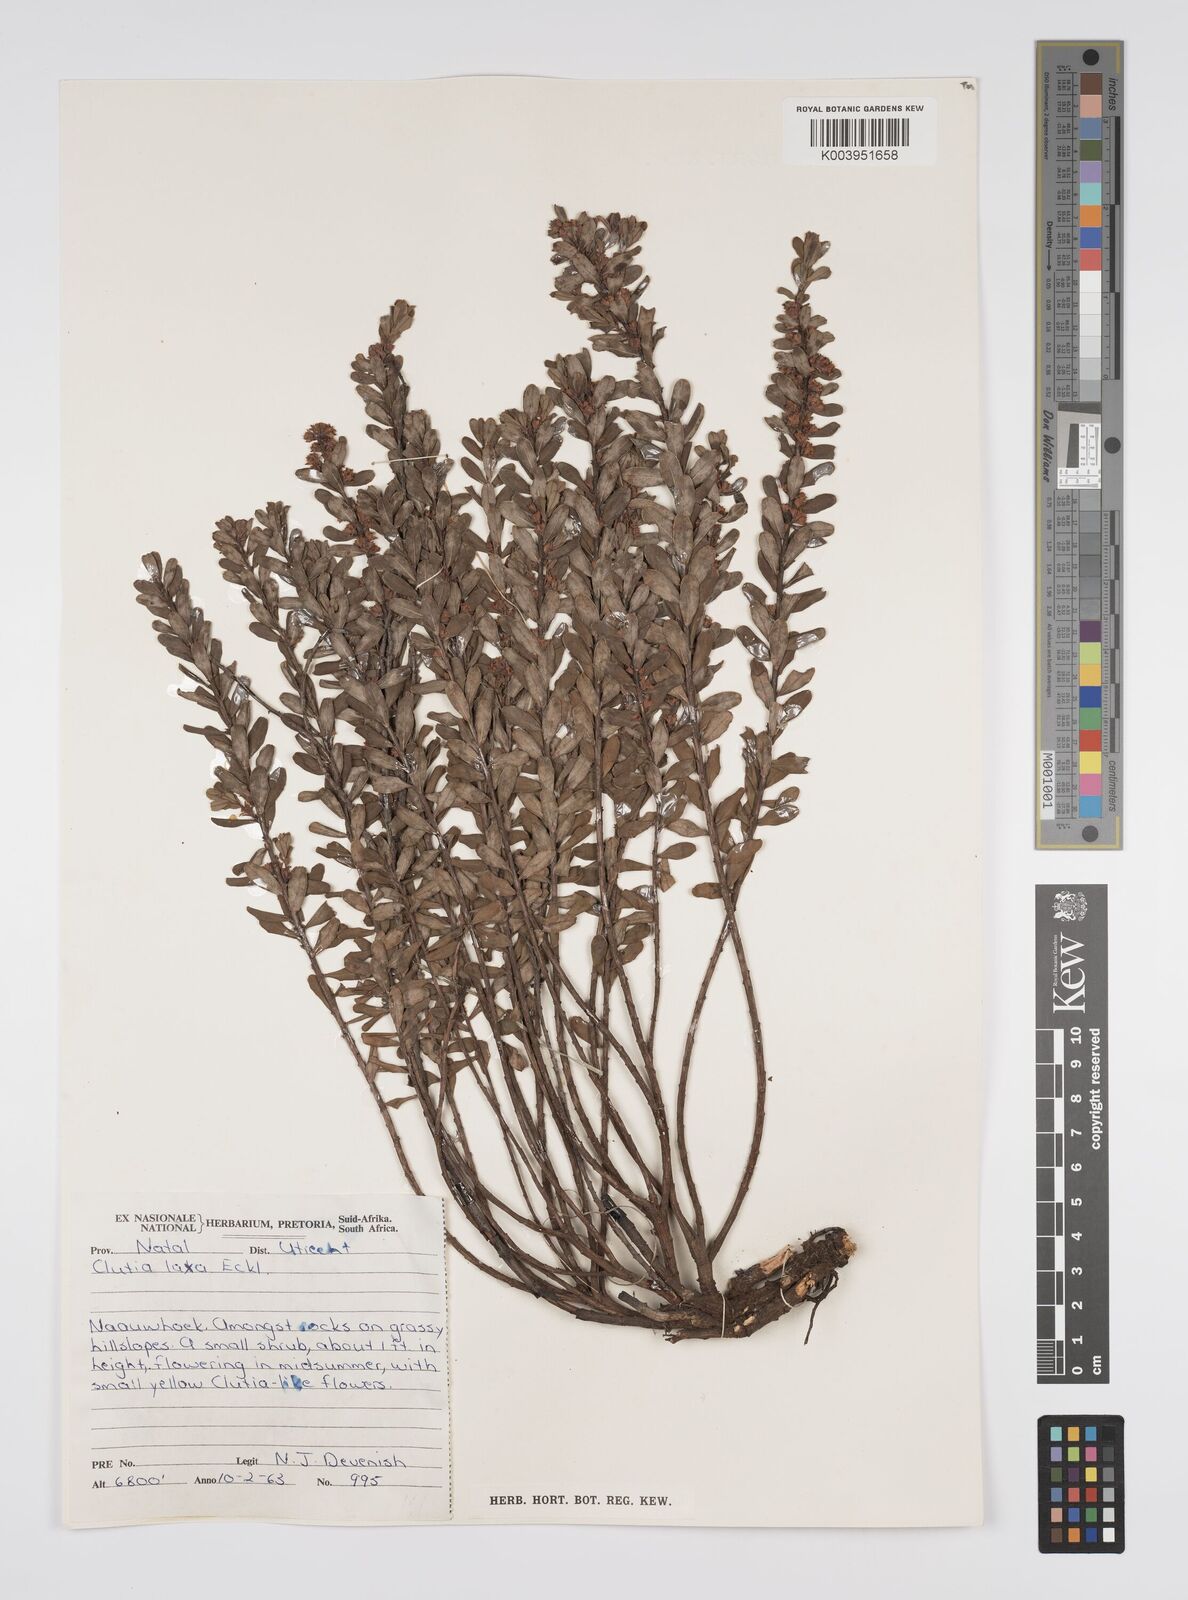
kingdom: Plantae
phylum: Tracheophyta
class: Magnoliopsida
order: Malpighiales
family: Peraceae
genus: Clutia
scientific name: Clutia laxa
